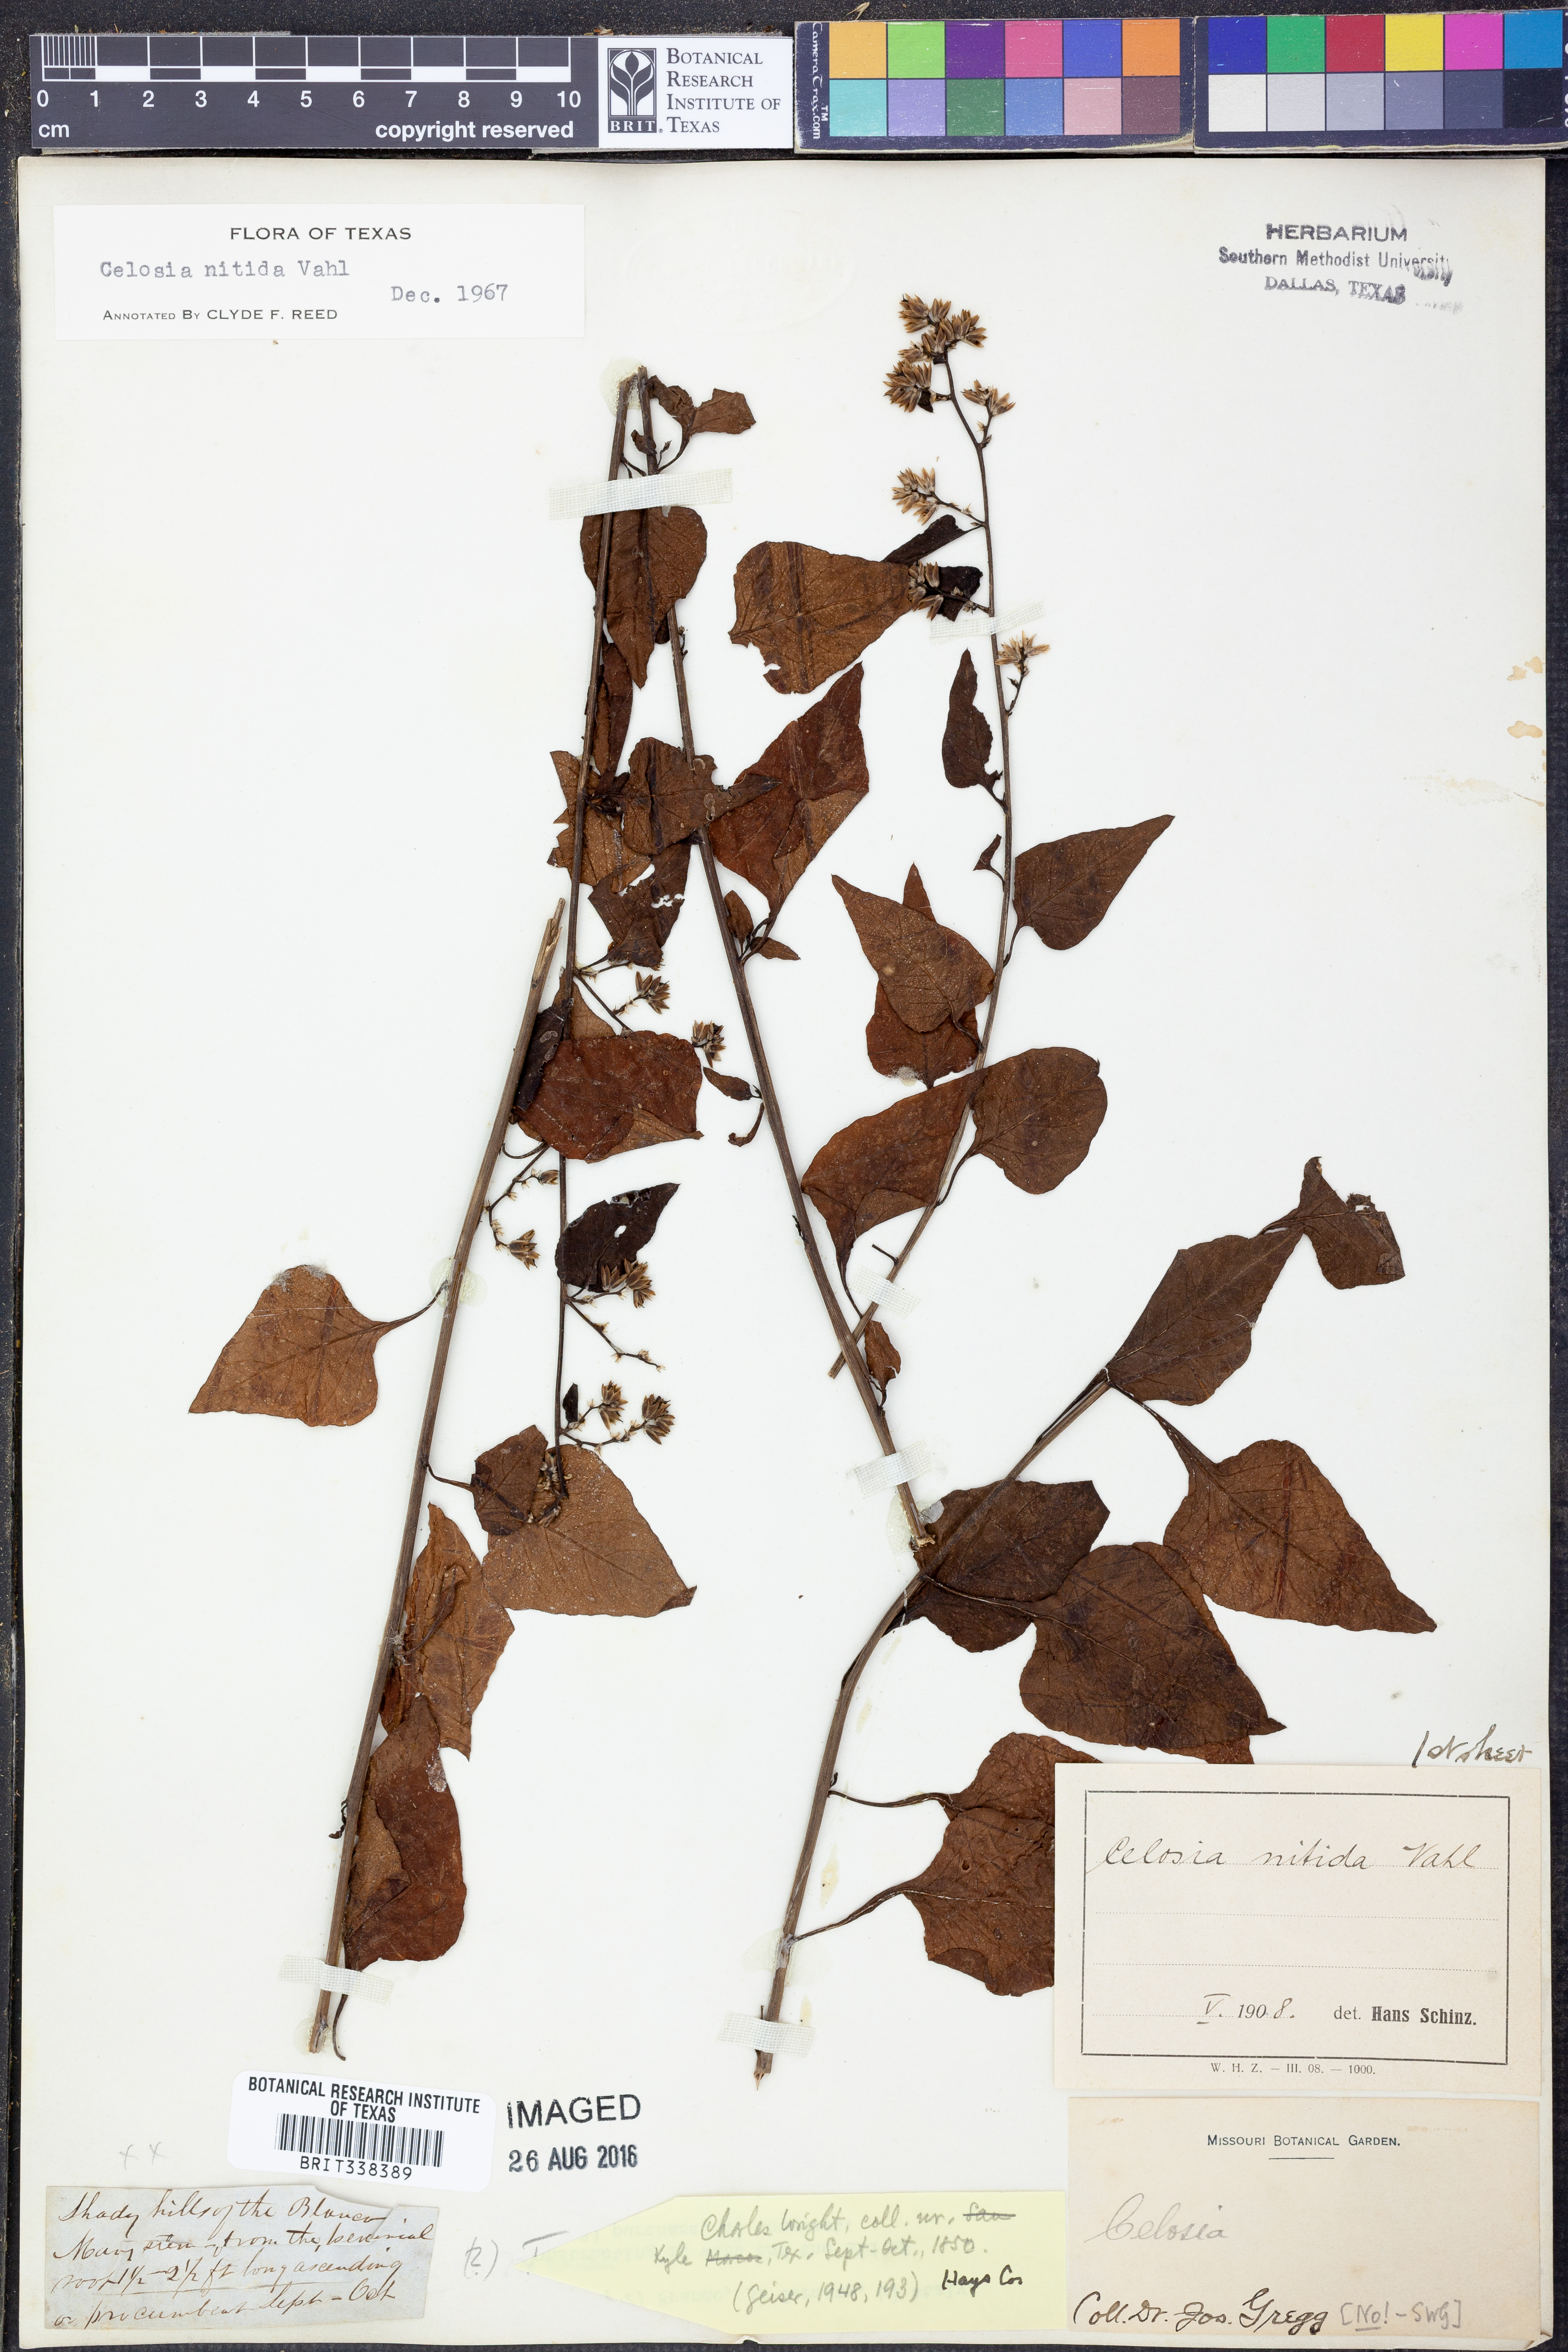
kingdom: Plantae
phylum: Tracheophyta
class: Magnoliopsida
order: Caryophyllales
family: Amaranthaceae
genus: Celosia
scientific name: Celosia nitida
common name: West indian cock's comb
